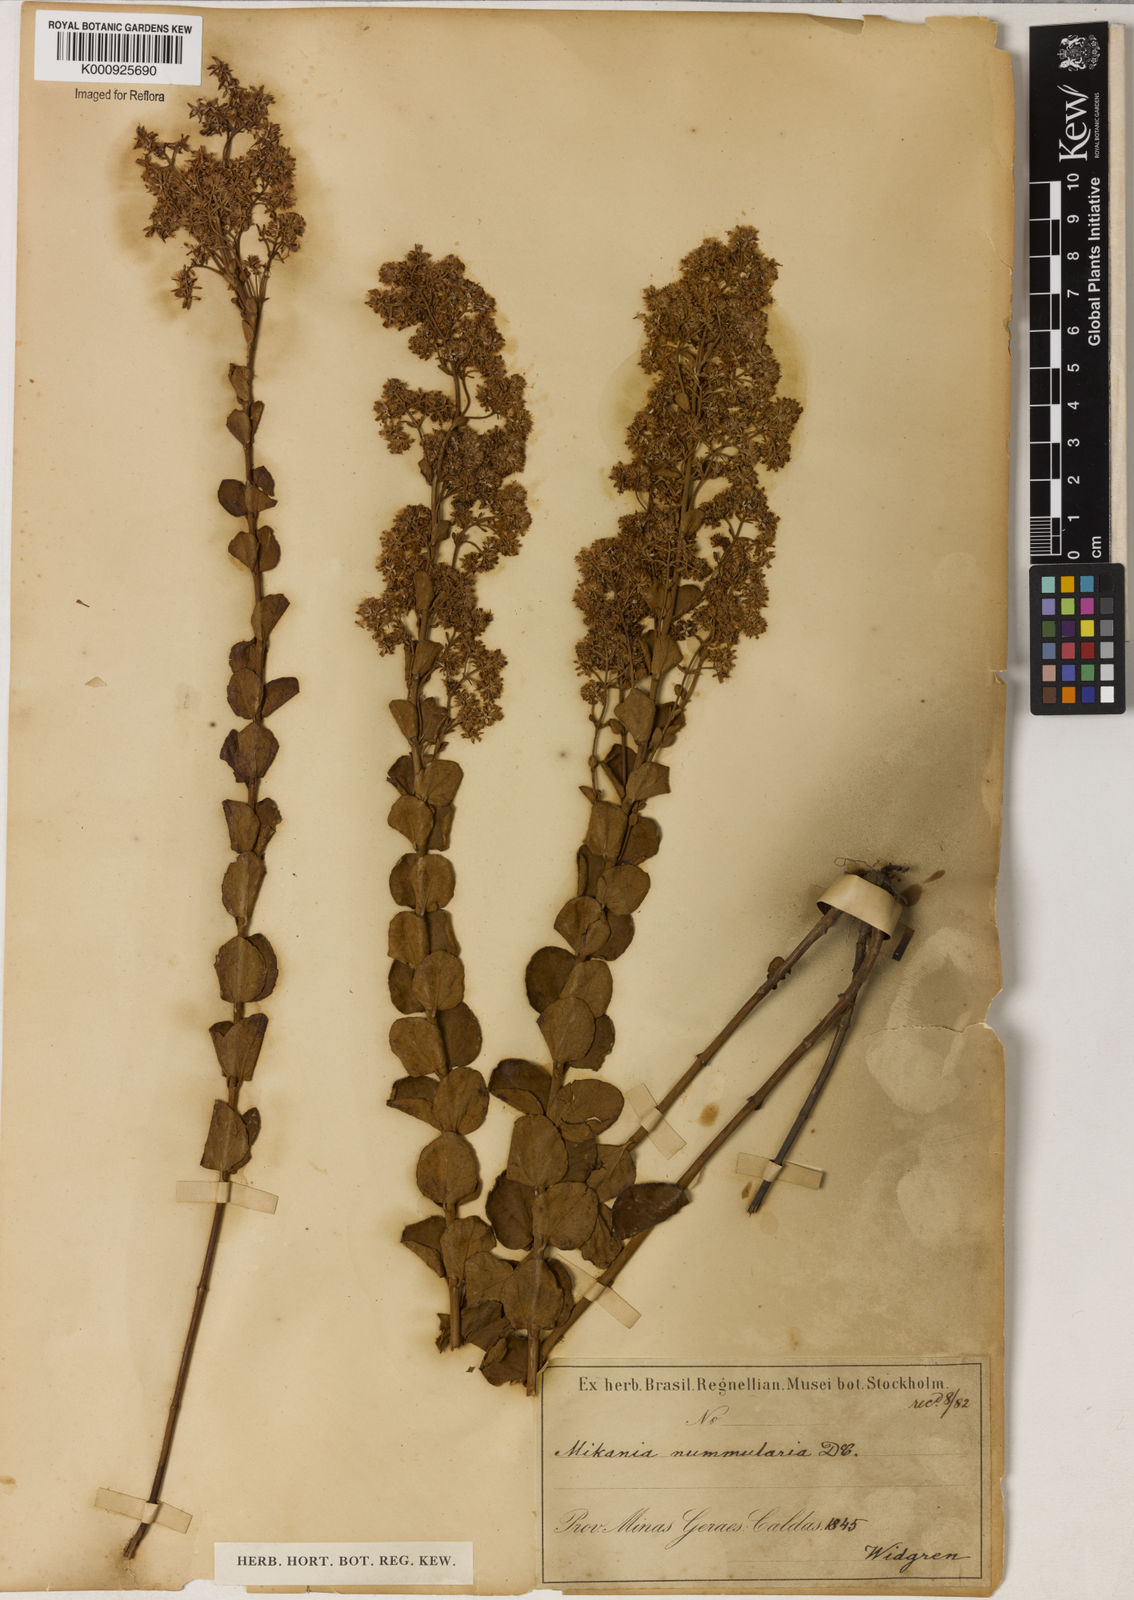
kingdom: Plantae
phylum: Tracheophyta
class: Magnoliopsida
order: Asterales
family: Asteraceae
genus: Mikania
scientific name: Mikania nummularia
